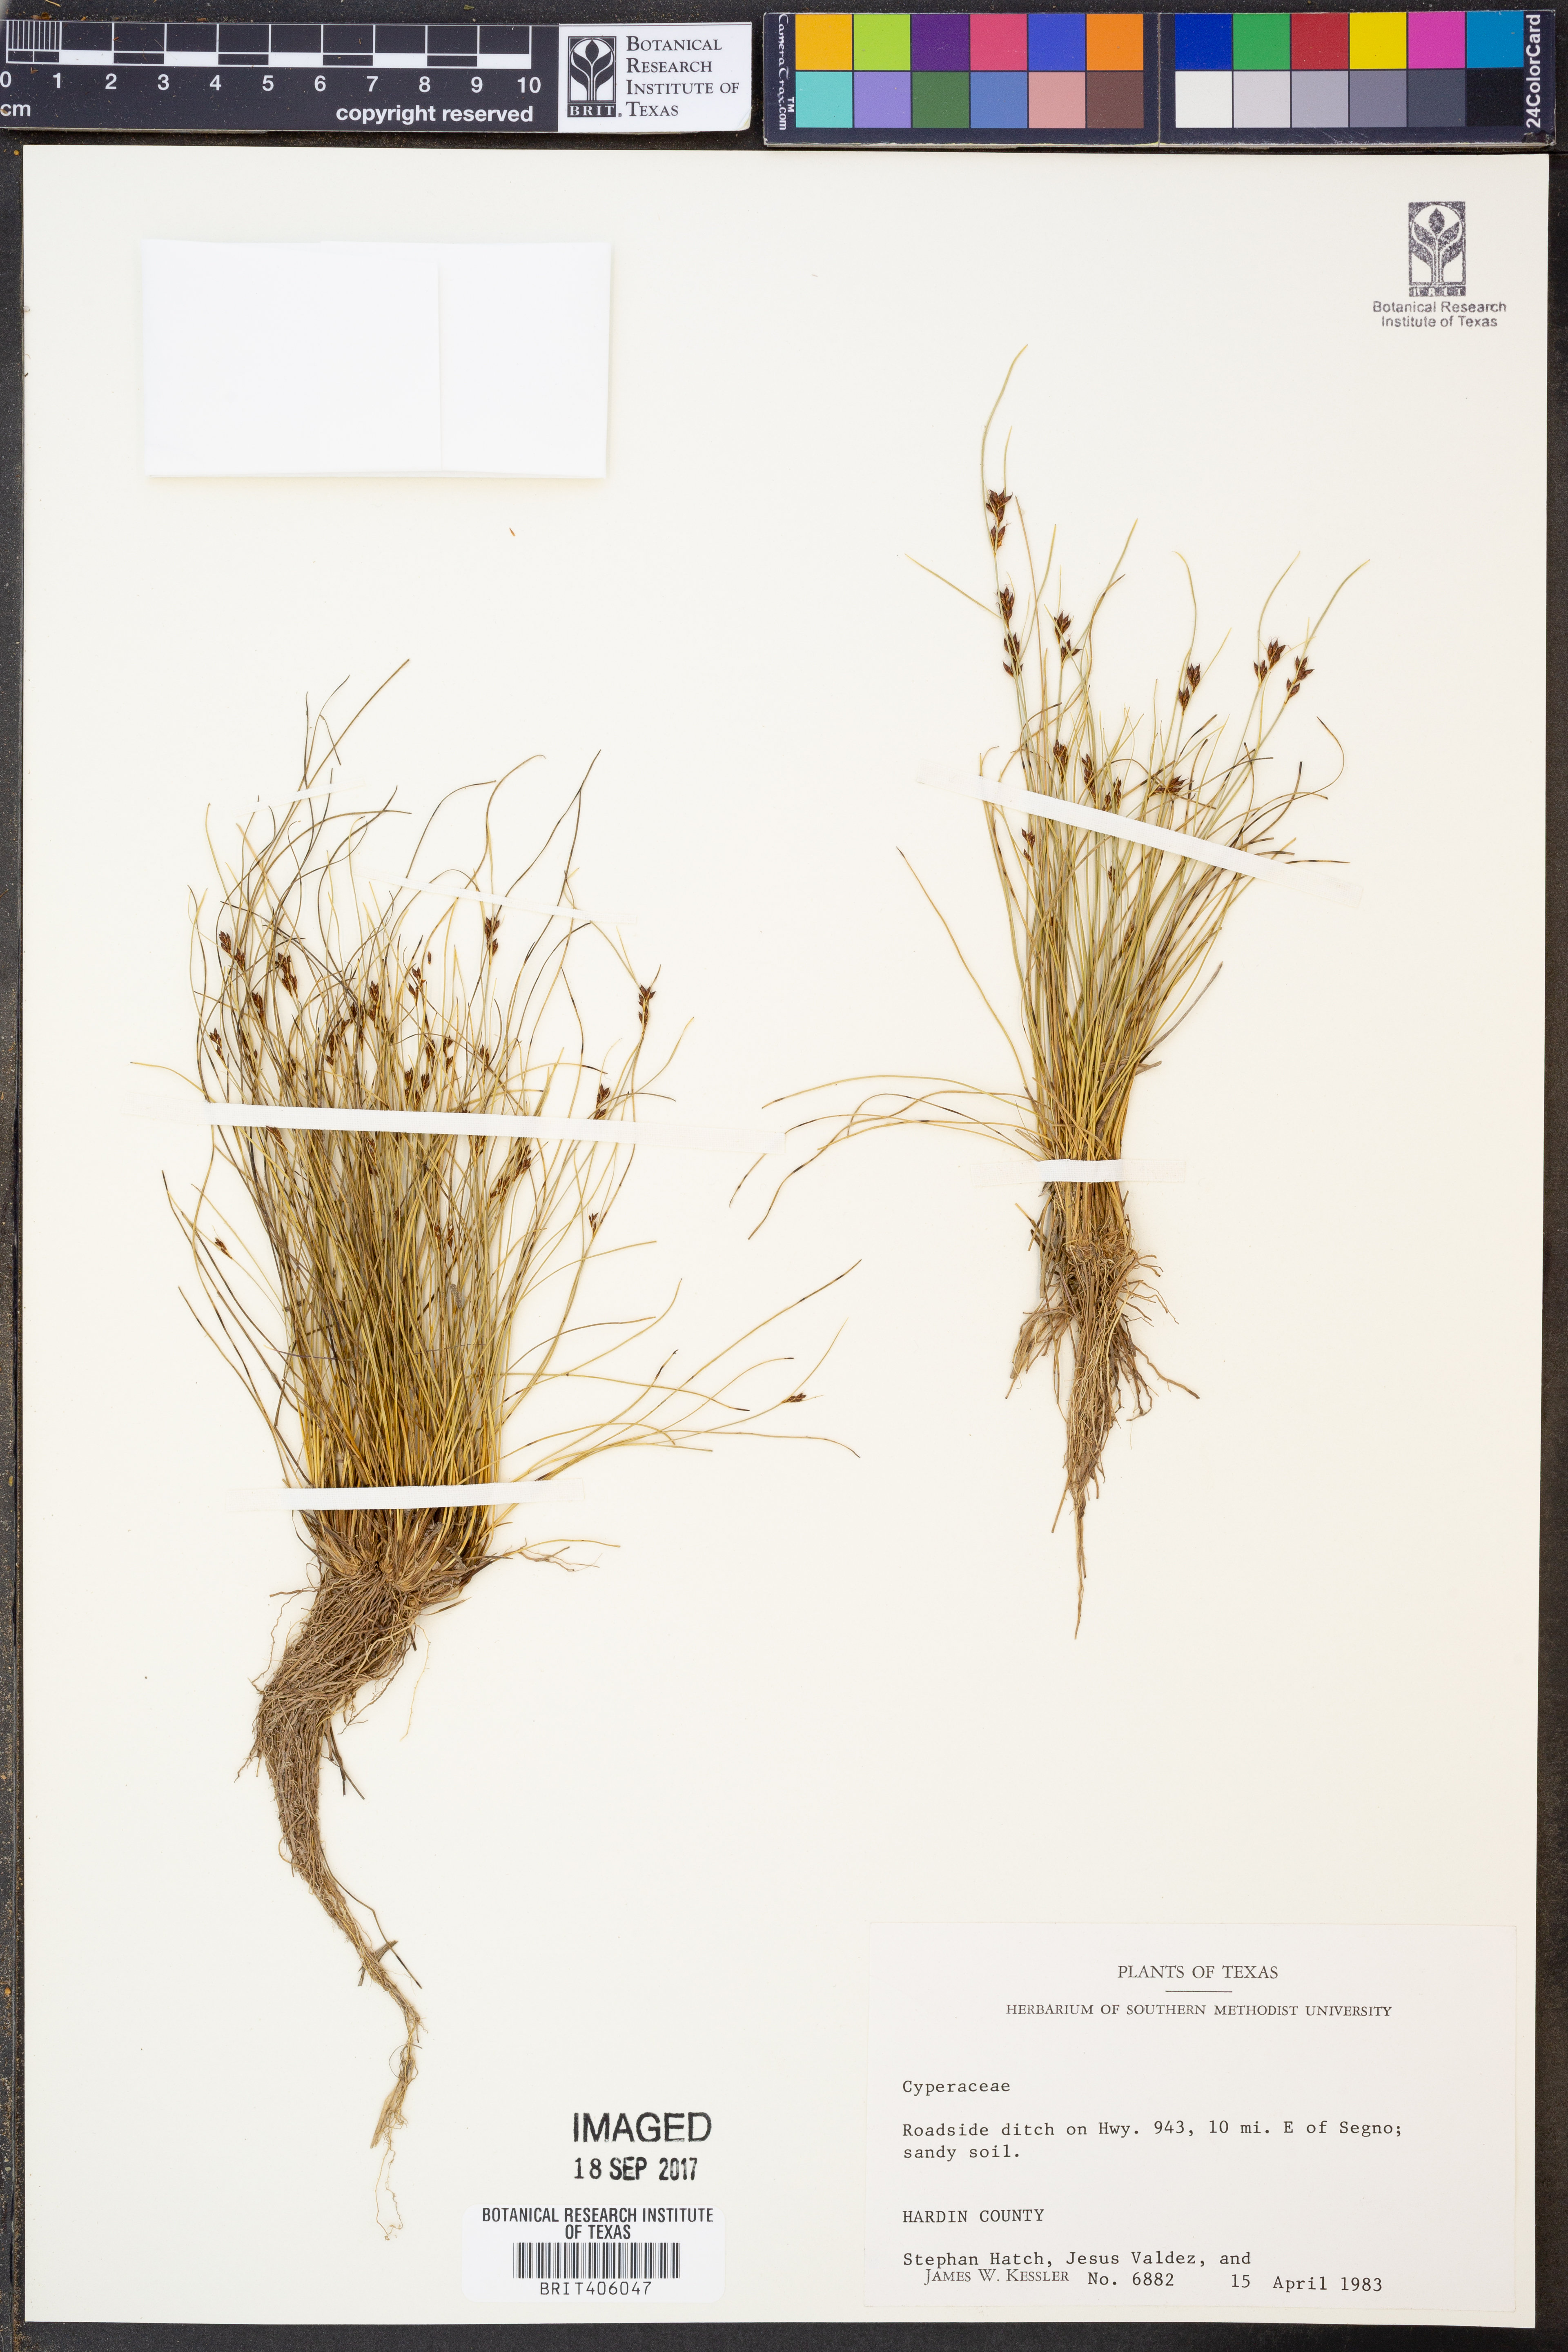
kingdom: Plantae
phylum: Tracheophyta
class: Liliopsida
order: Poales
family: Cyperaceae
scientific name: Cyperaceae
